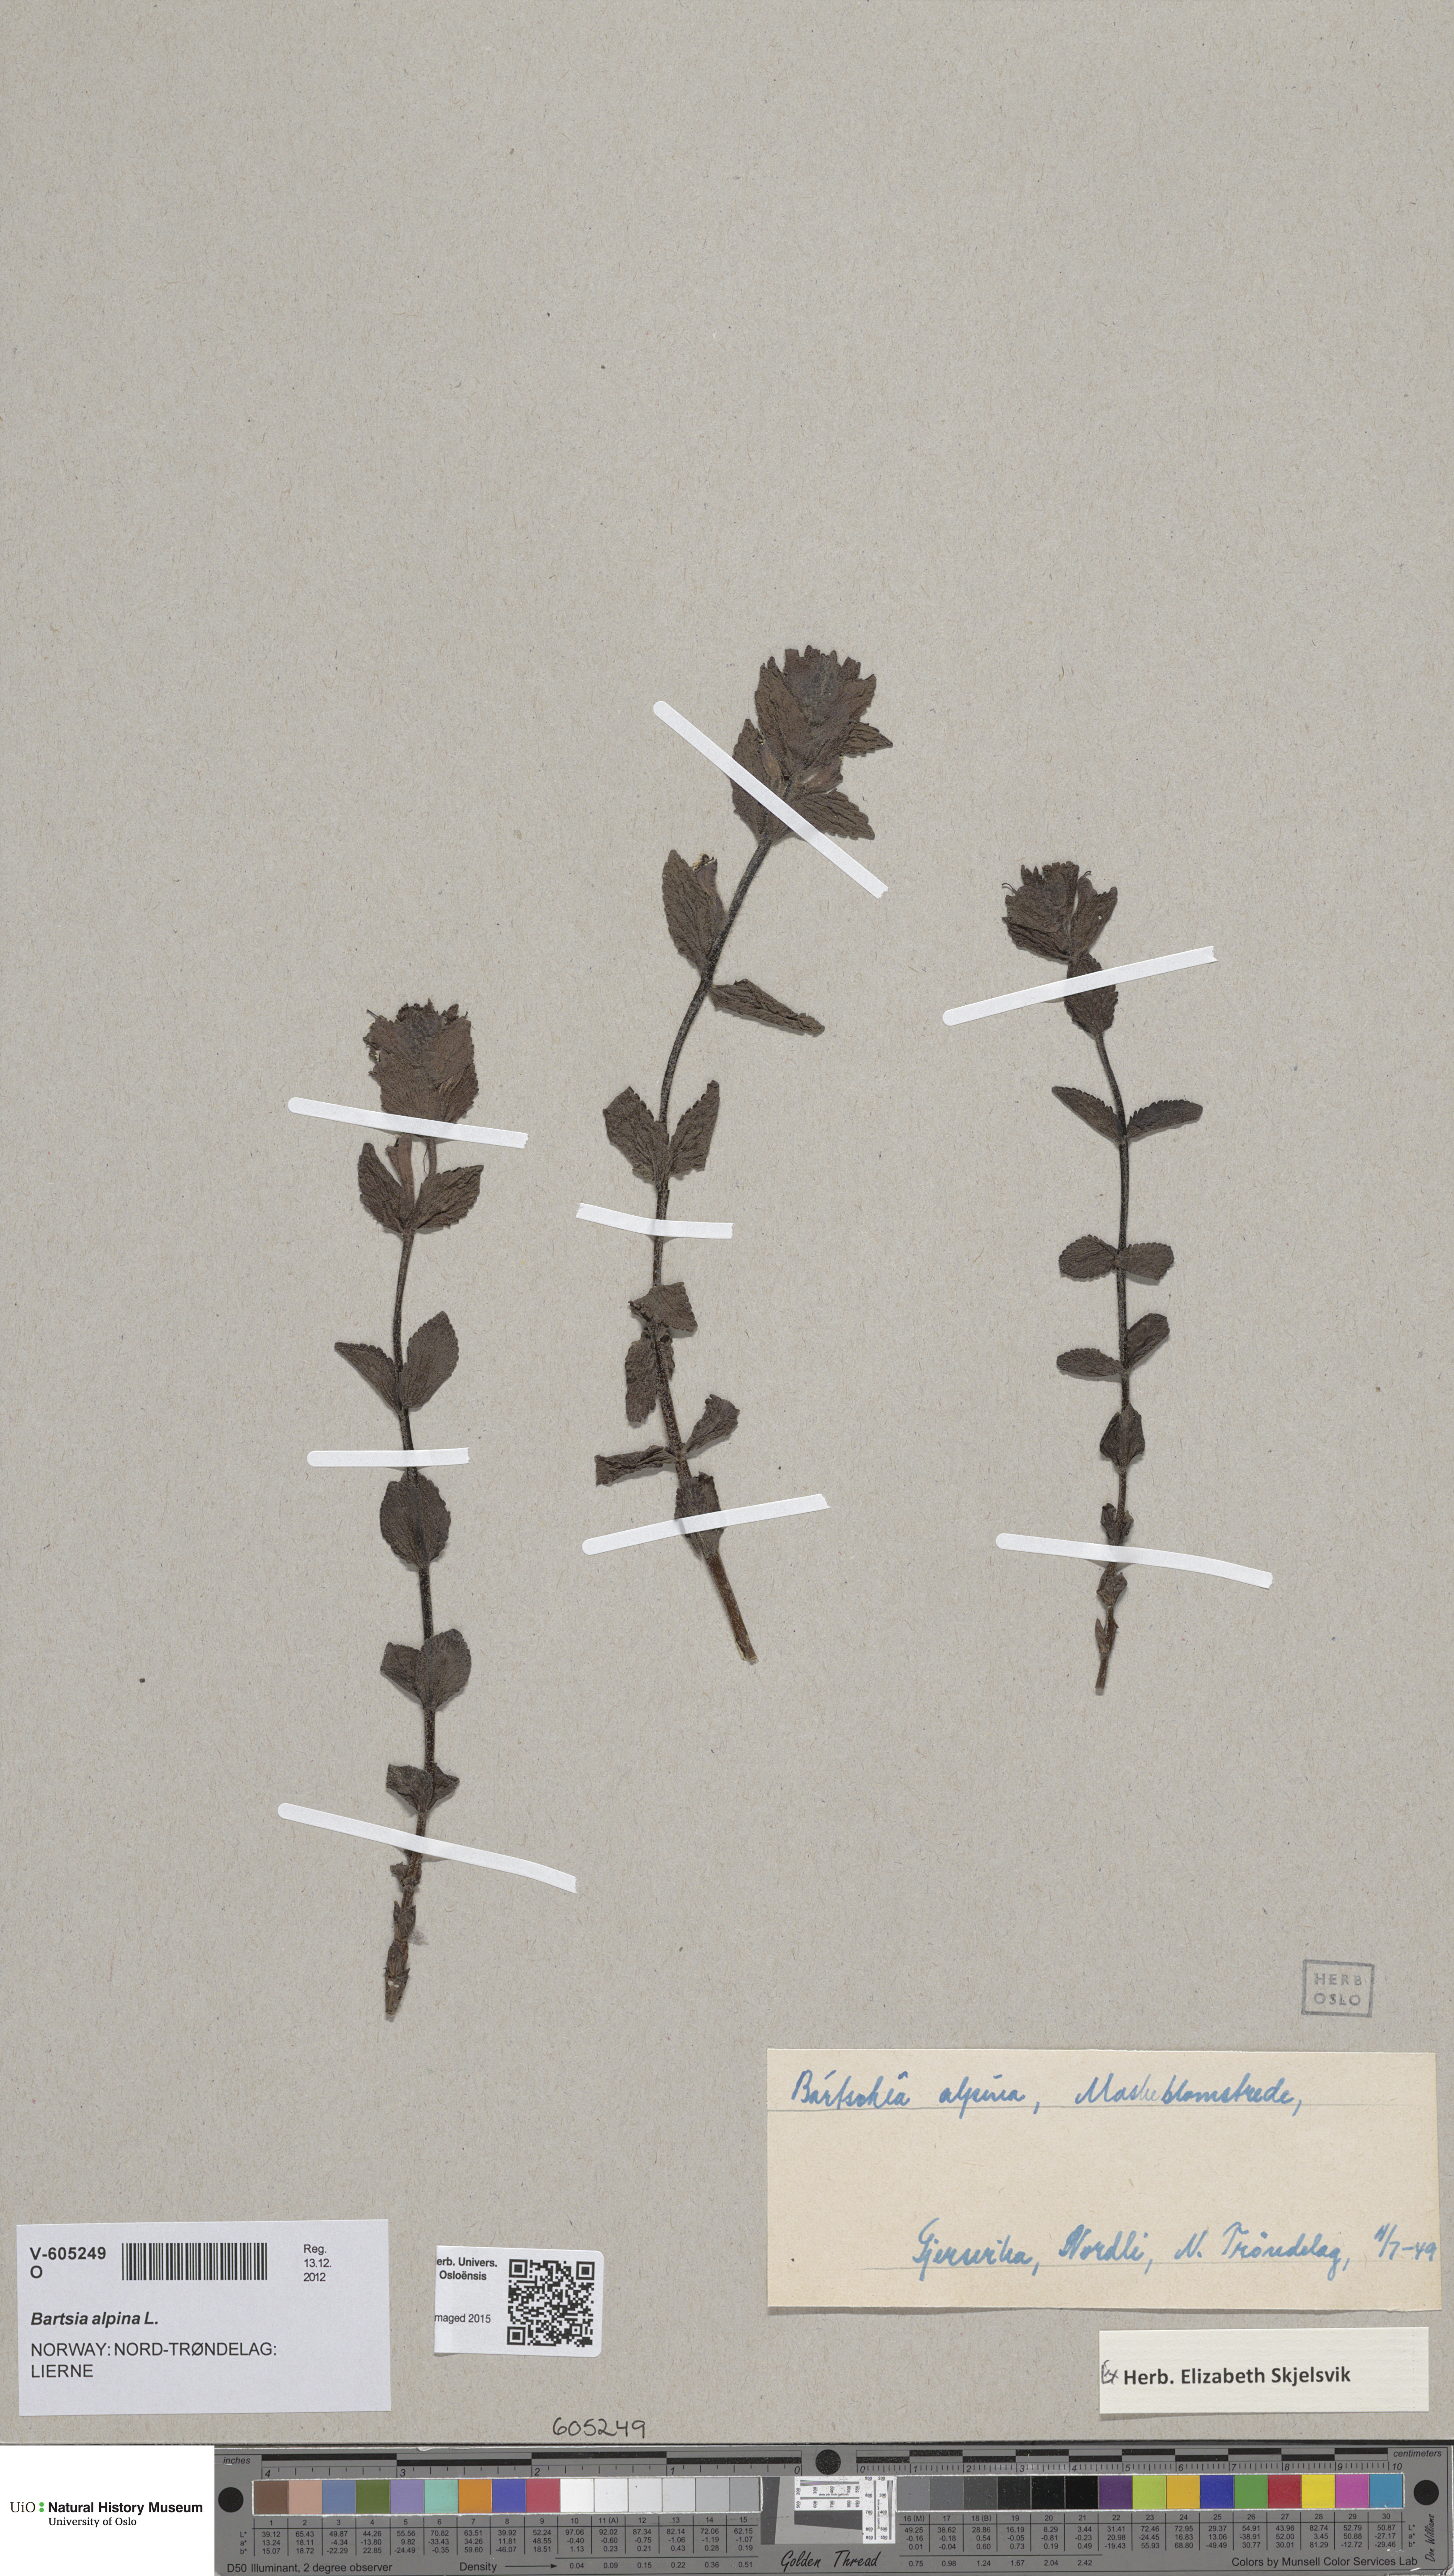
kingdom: Plantae
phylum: Tracheophyta
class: Magnoliopsida
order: Lamiales
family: Orobanchaceae
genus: Bartsia
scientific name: Bartsia alpina
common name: Alpine bartsia
